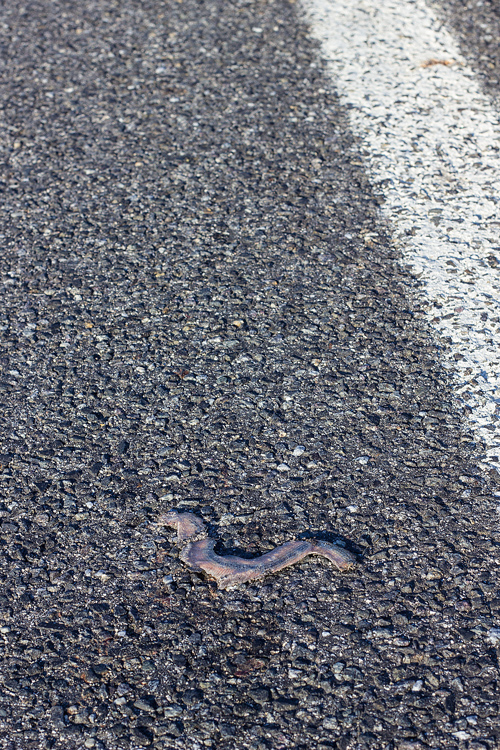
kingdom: Animalia
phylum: Chordata
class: Squamata
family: Anguidae
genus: Anguis
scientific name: Anguis fragilis
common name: Slow worm
